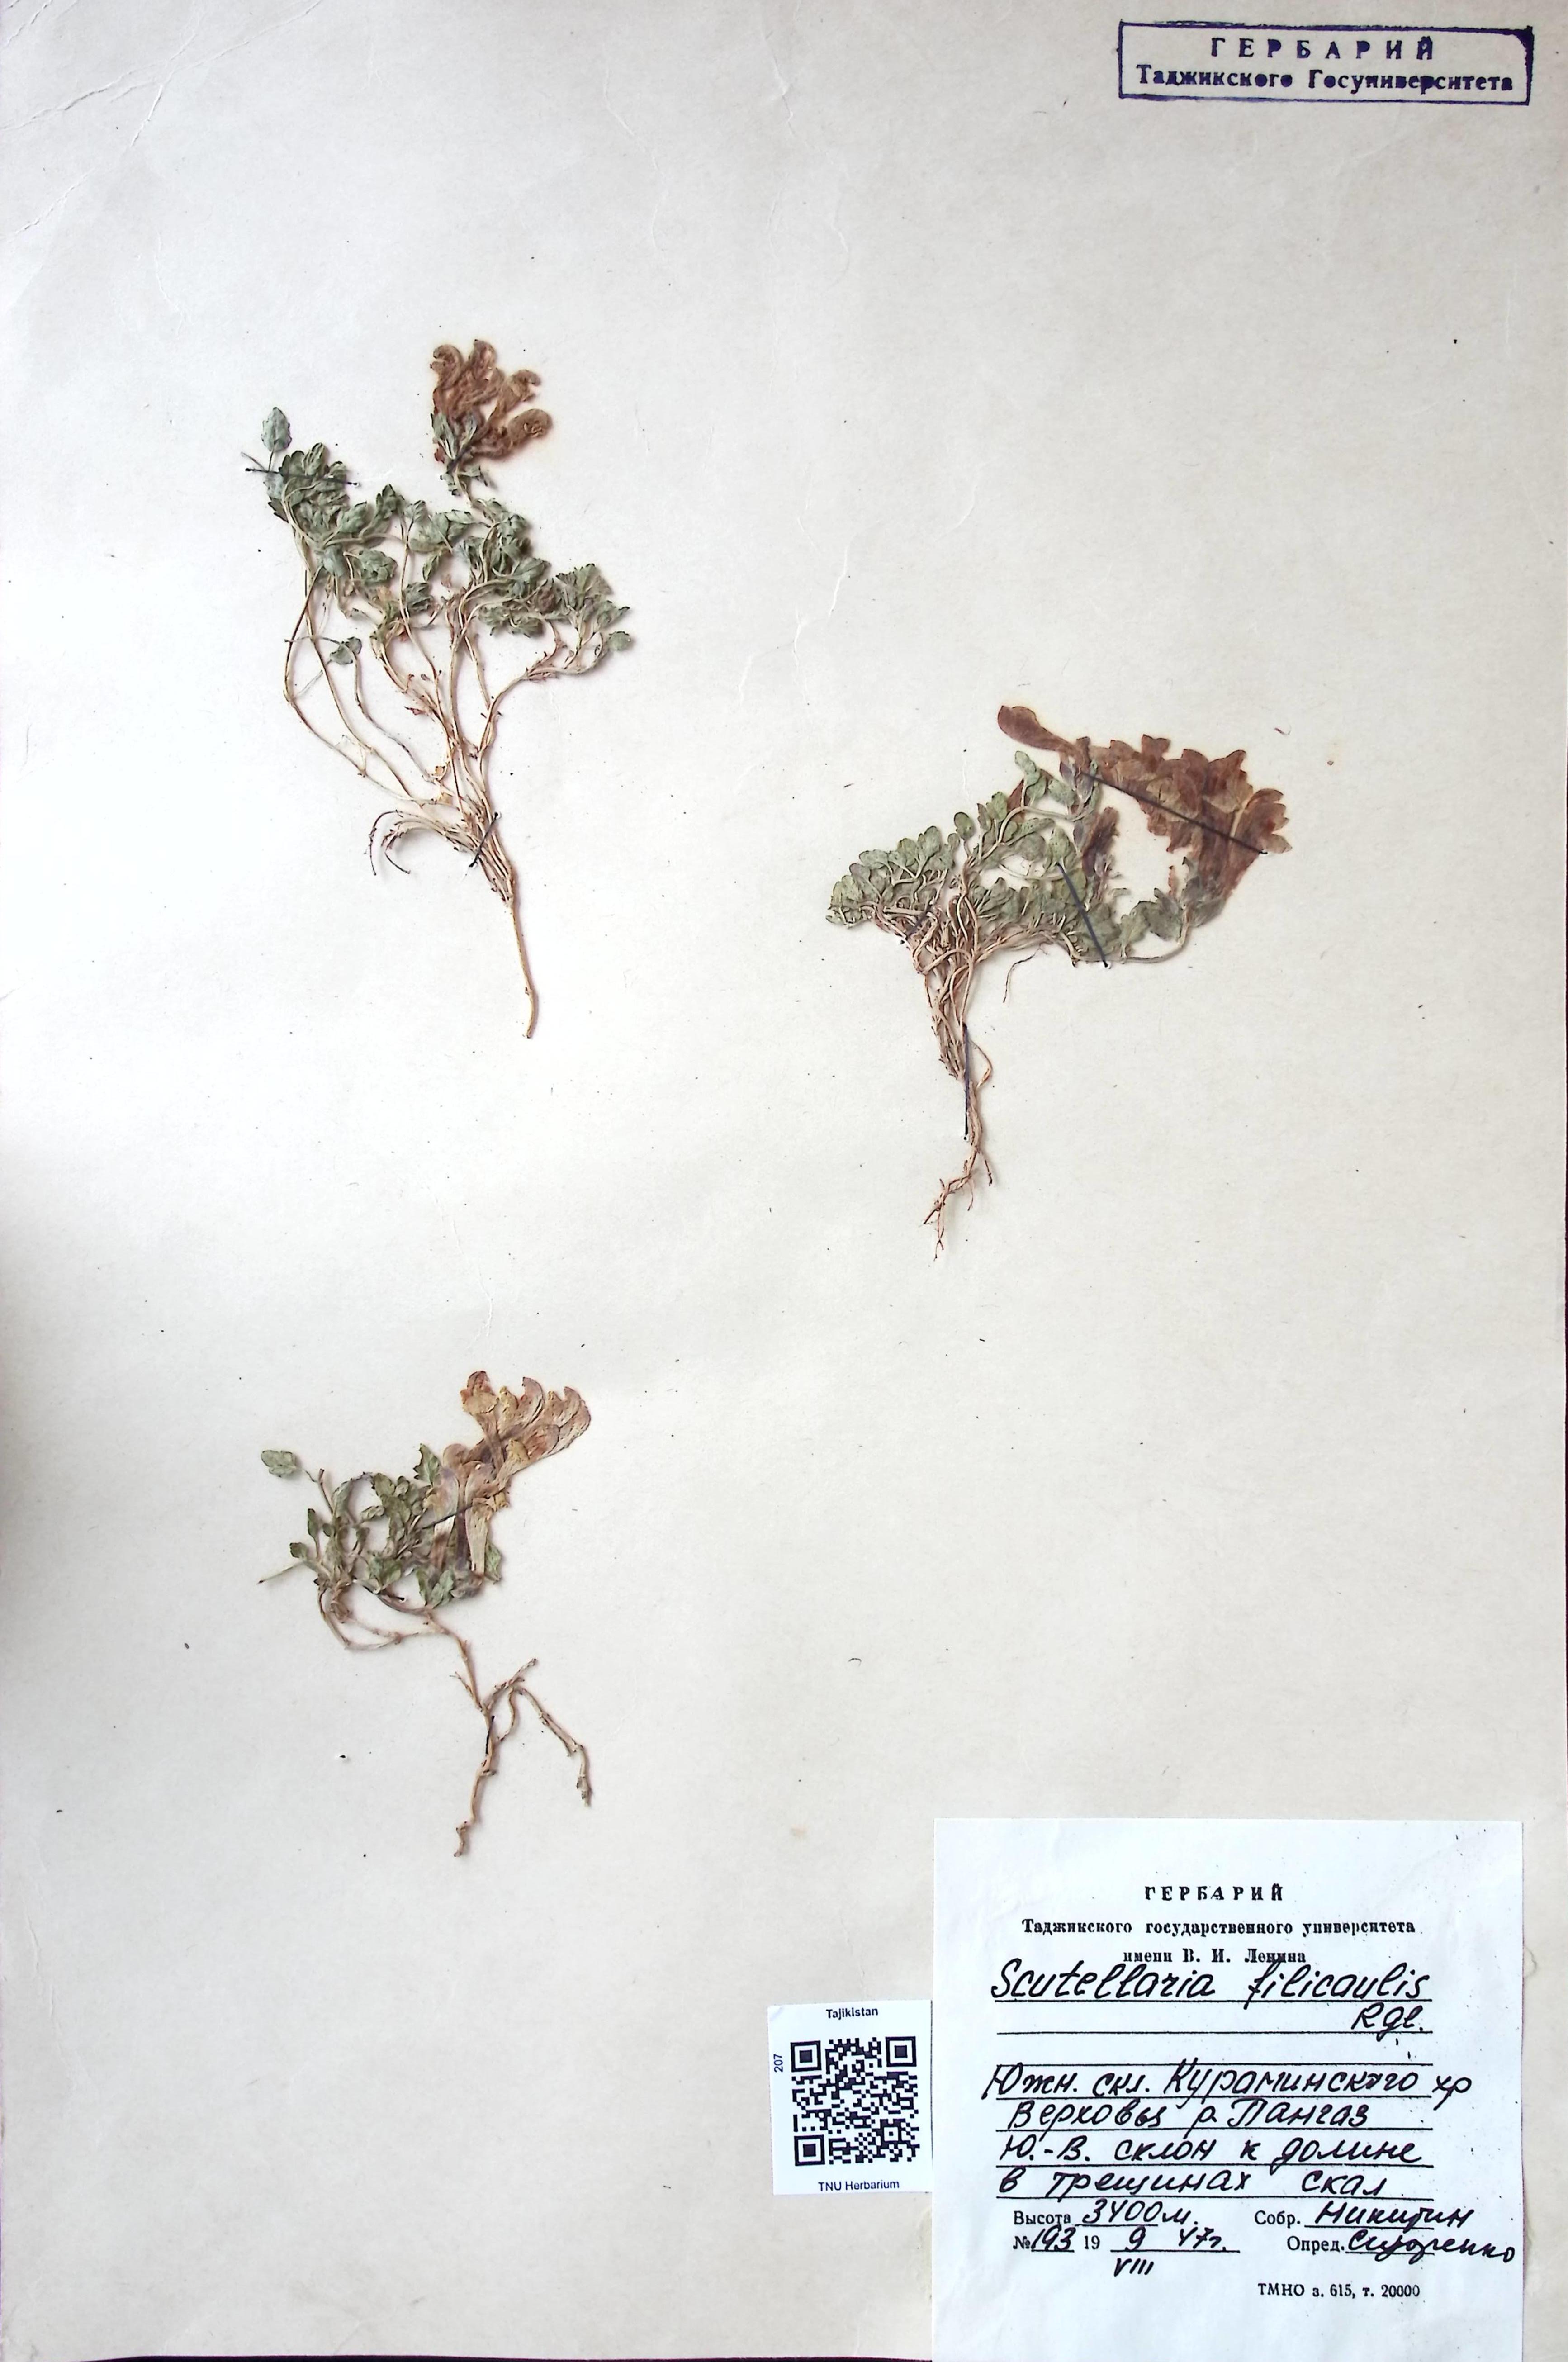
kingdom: Plantae
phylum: Tracheophyta
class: Magnoliopsida
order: Lamiales
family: Lamiaceae
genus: Scutellaria
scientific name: Scutellaria filicaulis
